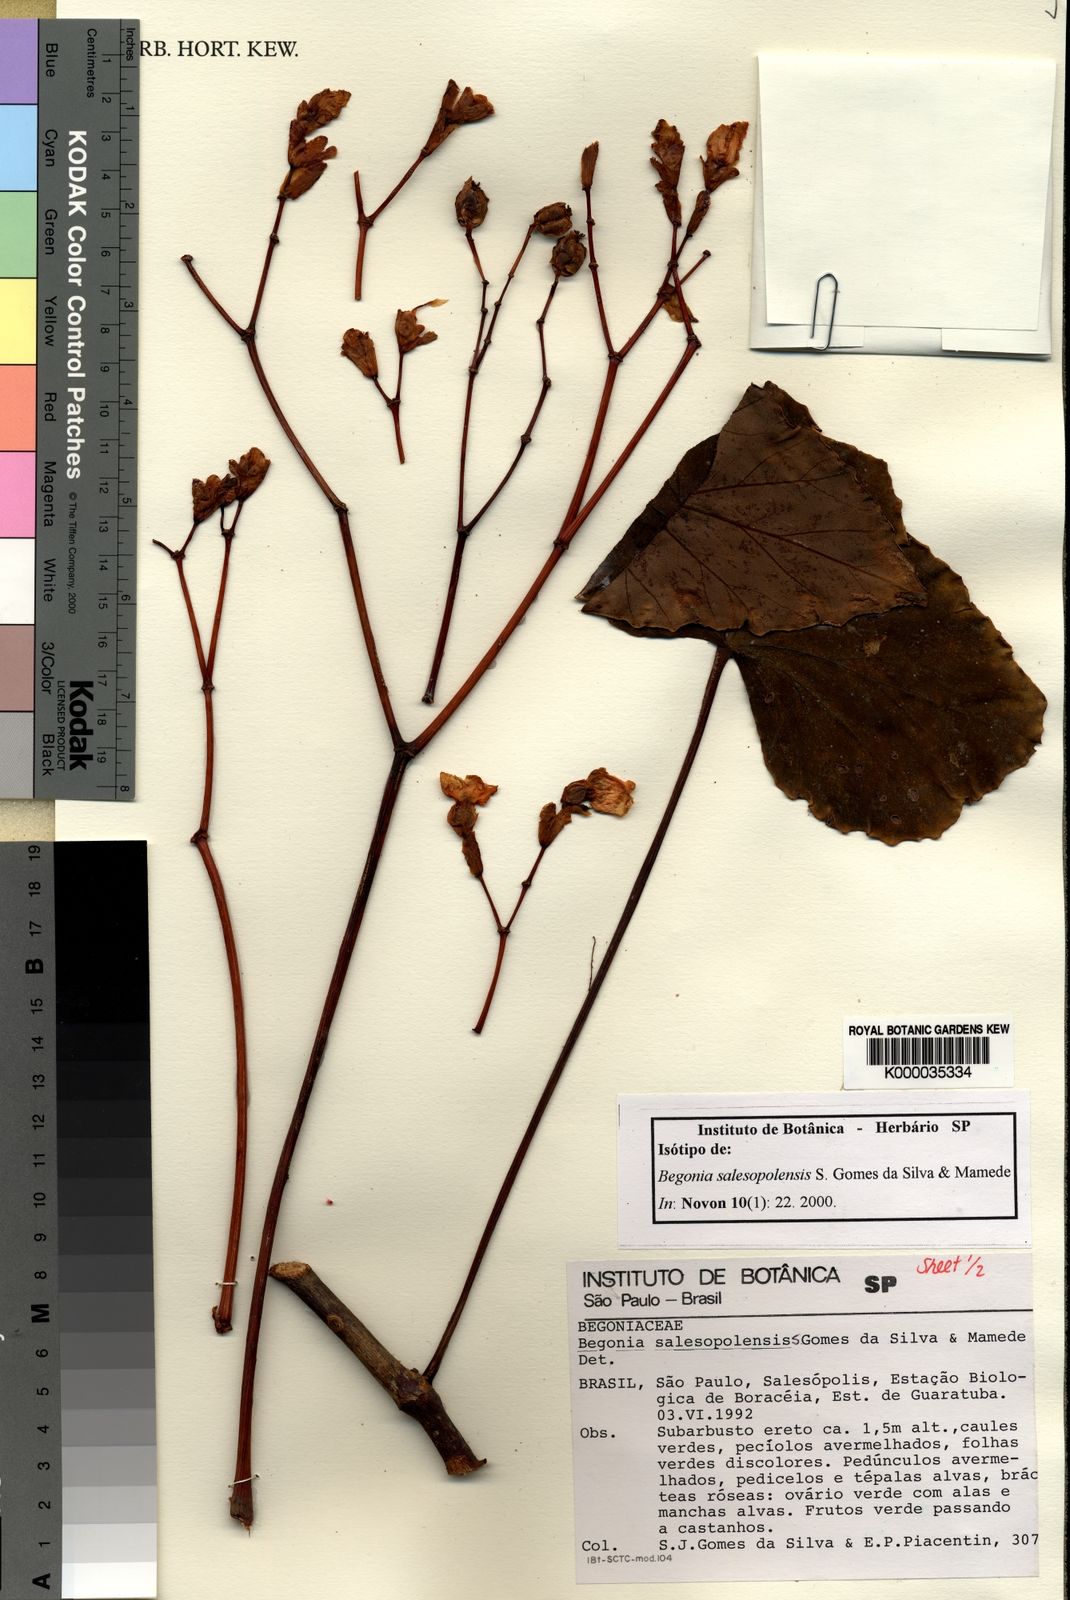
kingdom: Plantae
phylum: Tracheophyta
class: Magnoliopsida
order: Cucurbitales
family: Begoniaceae
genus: Begonia
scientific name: Begonia salesopolensis
